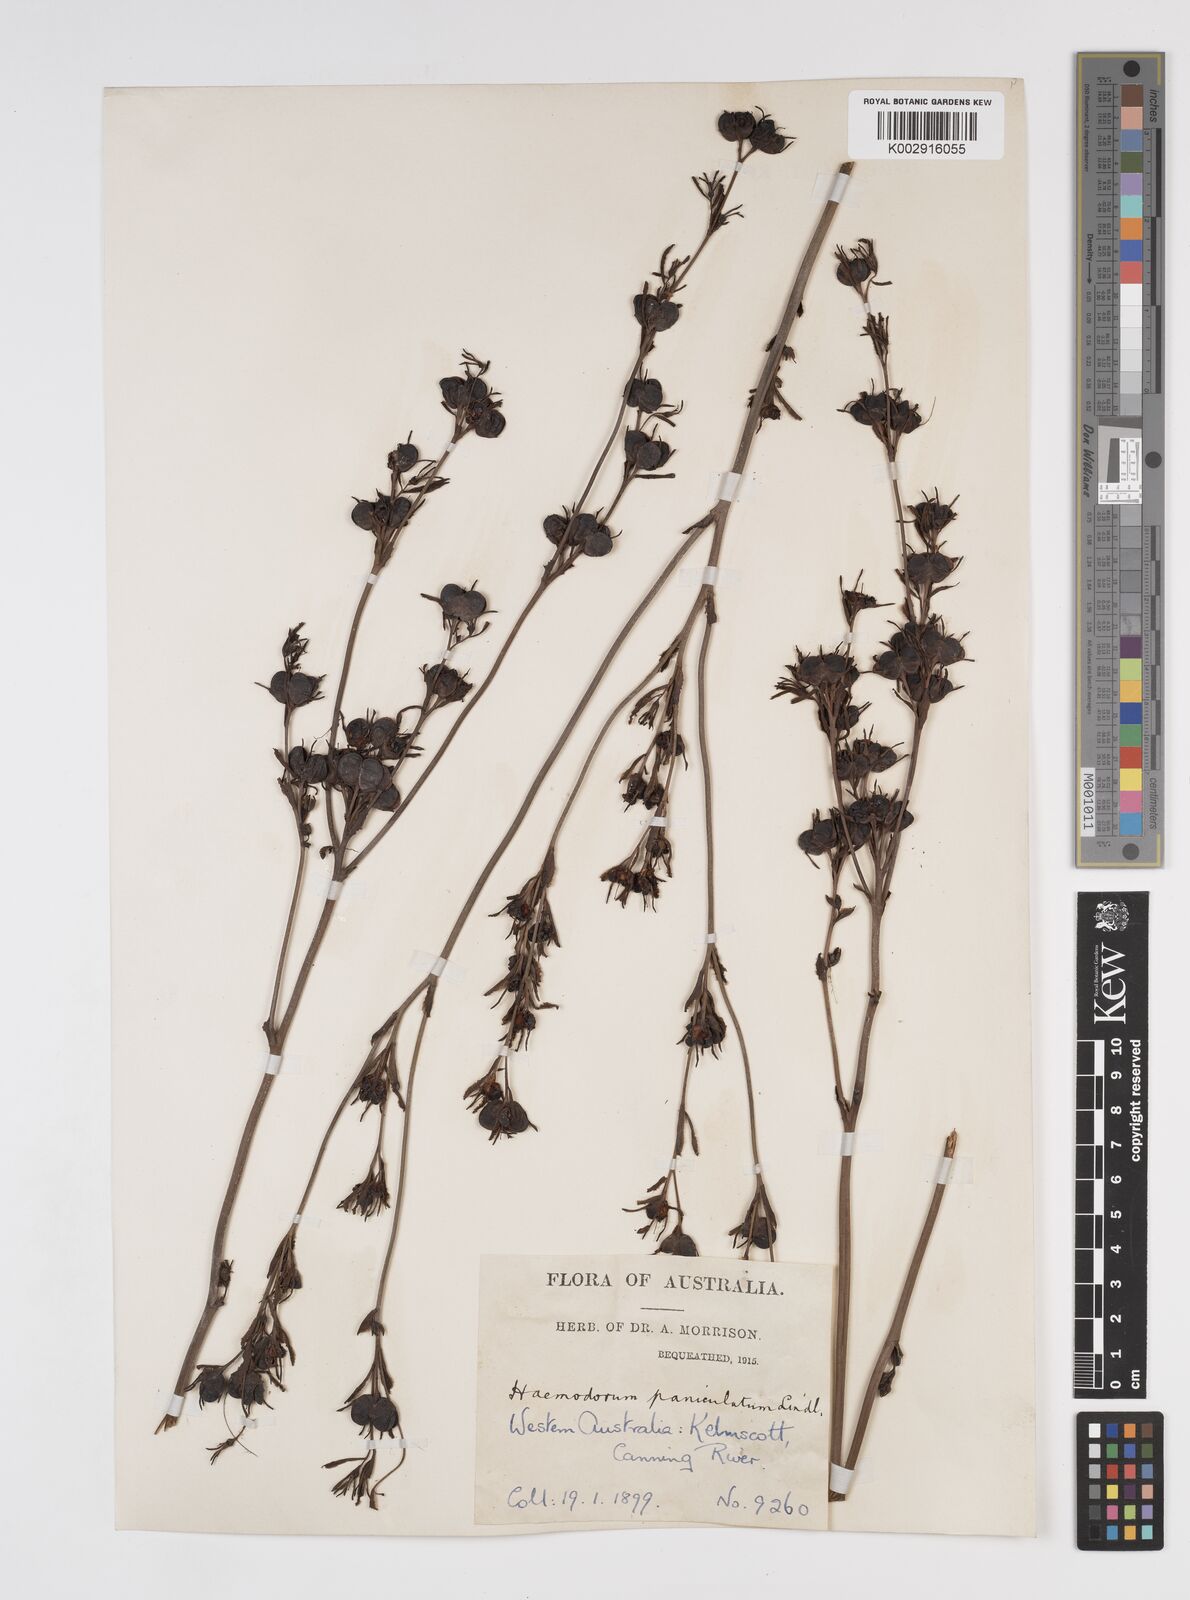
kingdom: Plantae
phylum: Tracheophyta
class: Liliopsida
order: Commelinales
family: Haemodoraceae
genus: Haemodorum
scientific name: Haemodorum paniculatum
